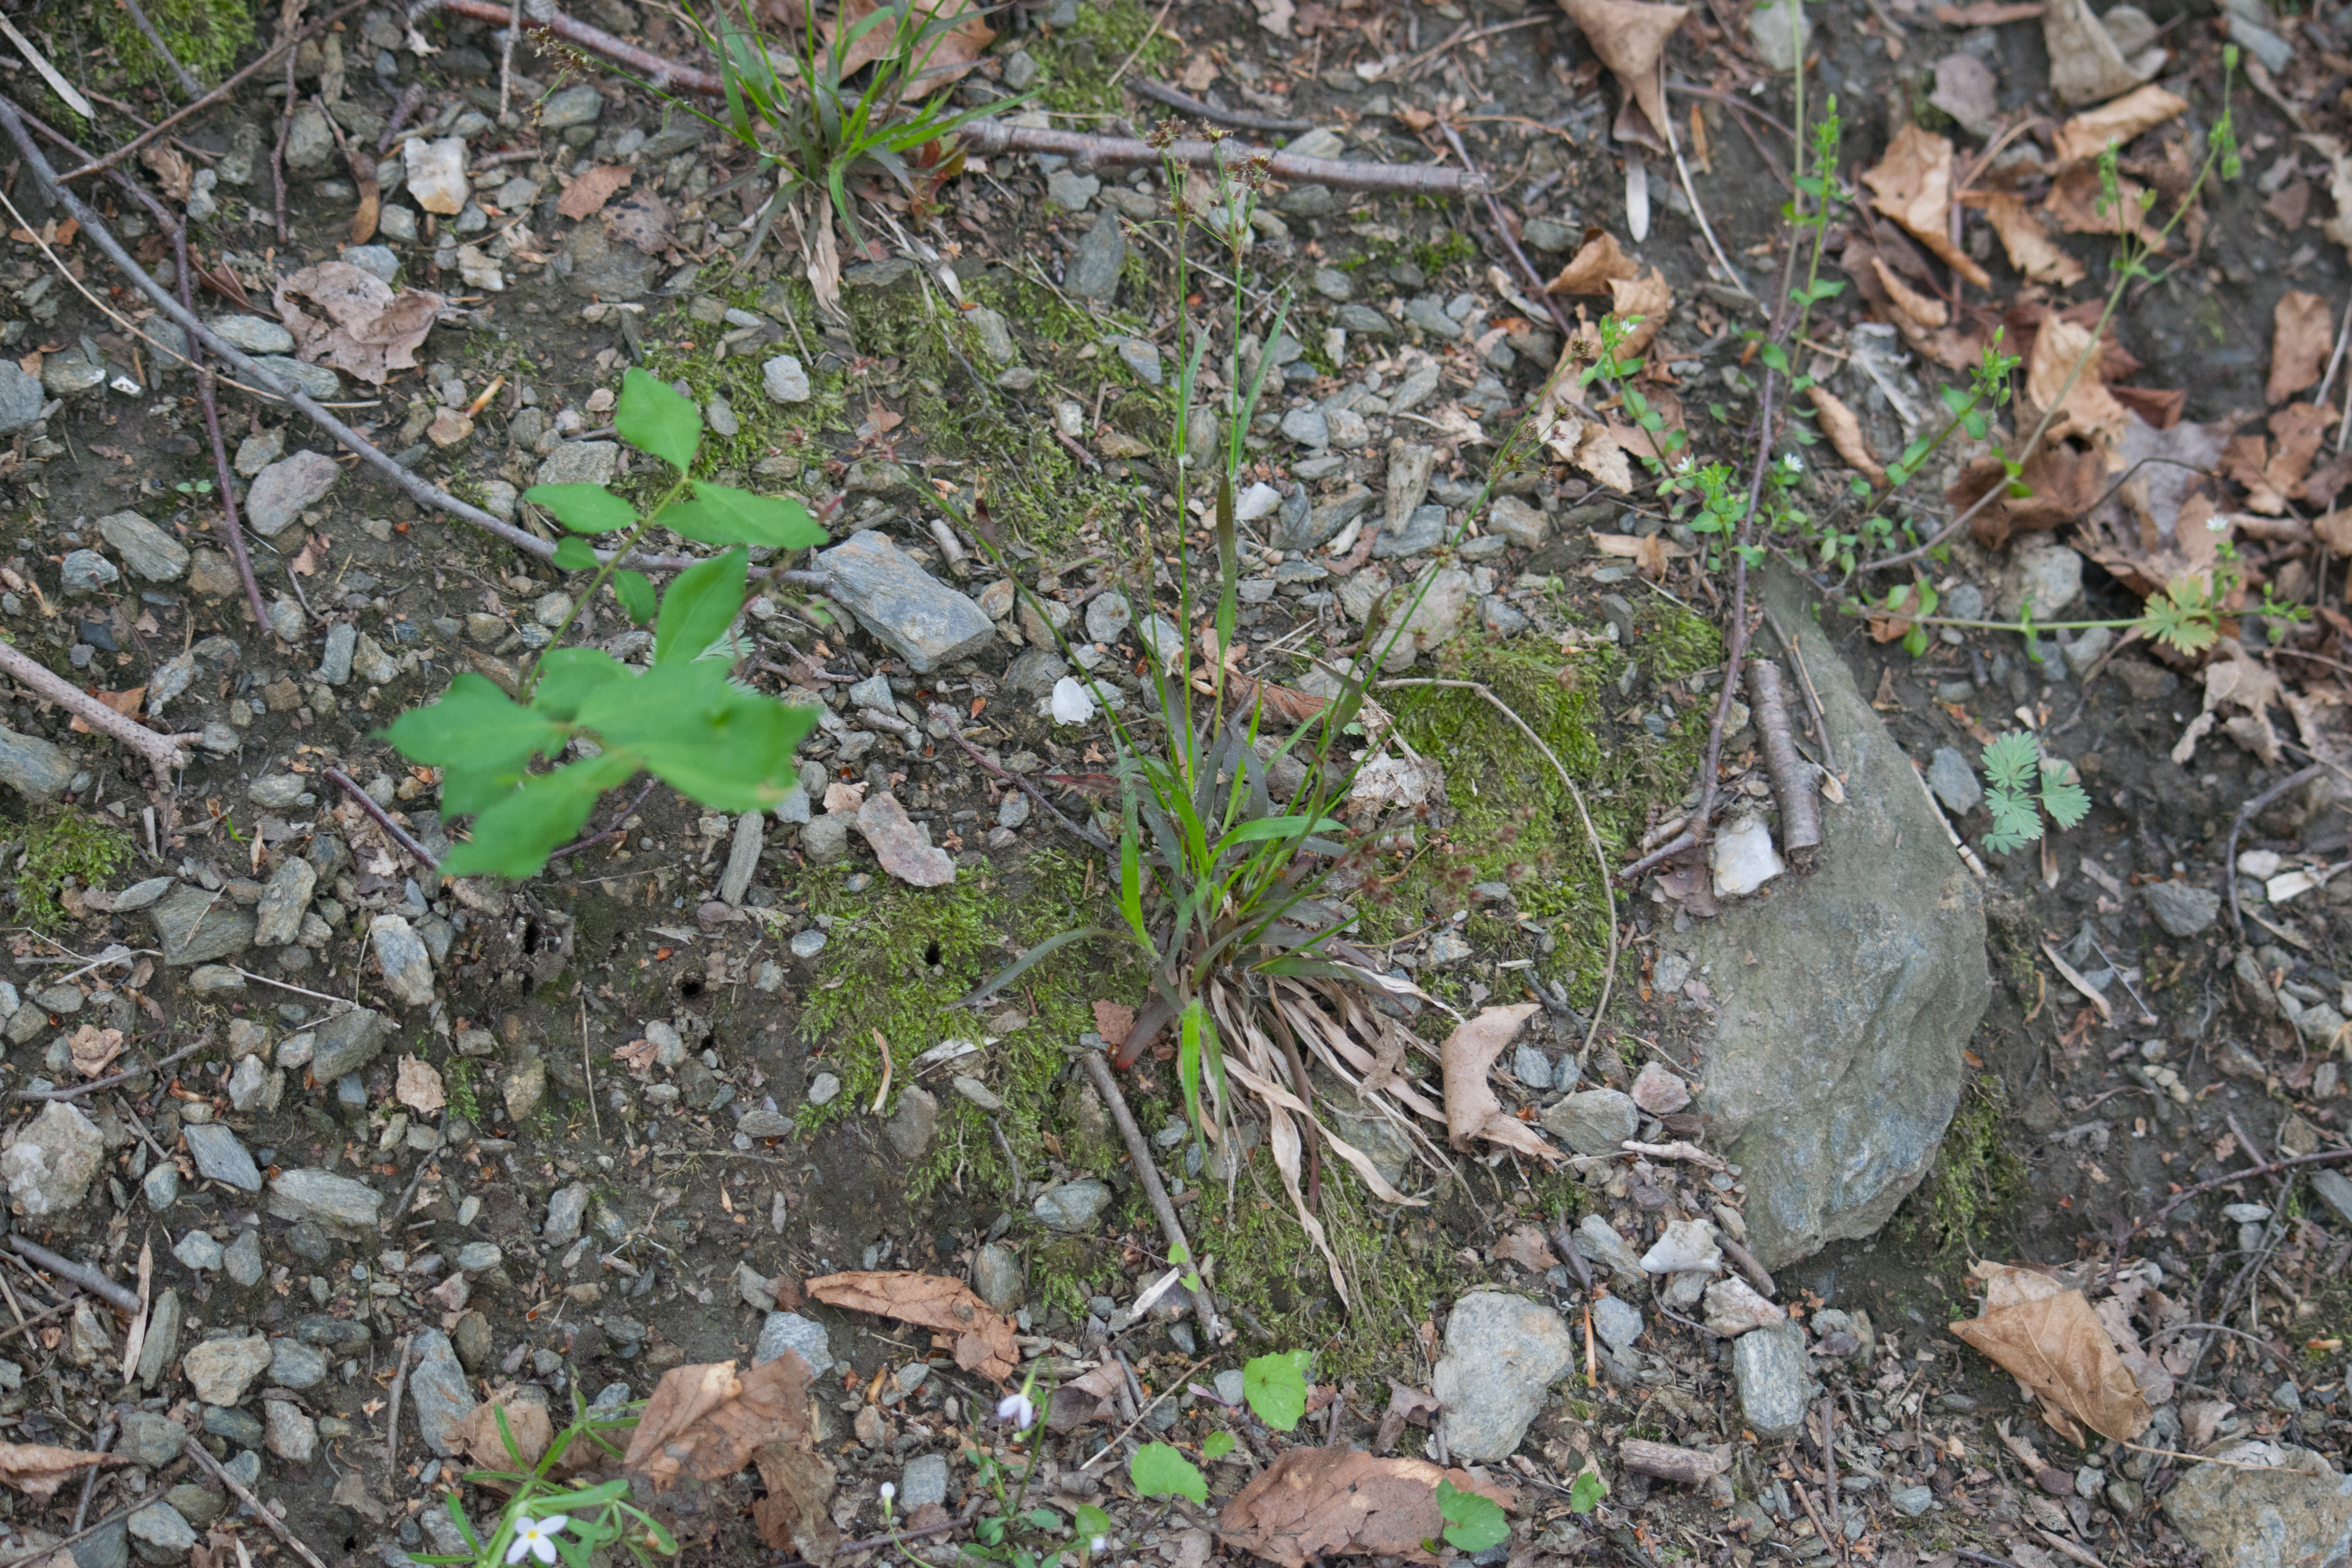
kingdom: Plantae
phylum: Tracheophyta
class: Liliopsida
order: Poales
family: Juncaceae
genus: Luzula
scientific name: Luzula multiflora
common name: Woodrush
